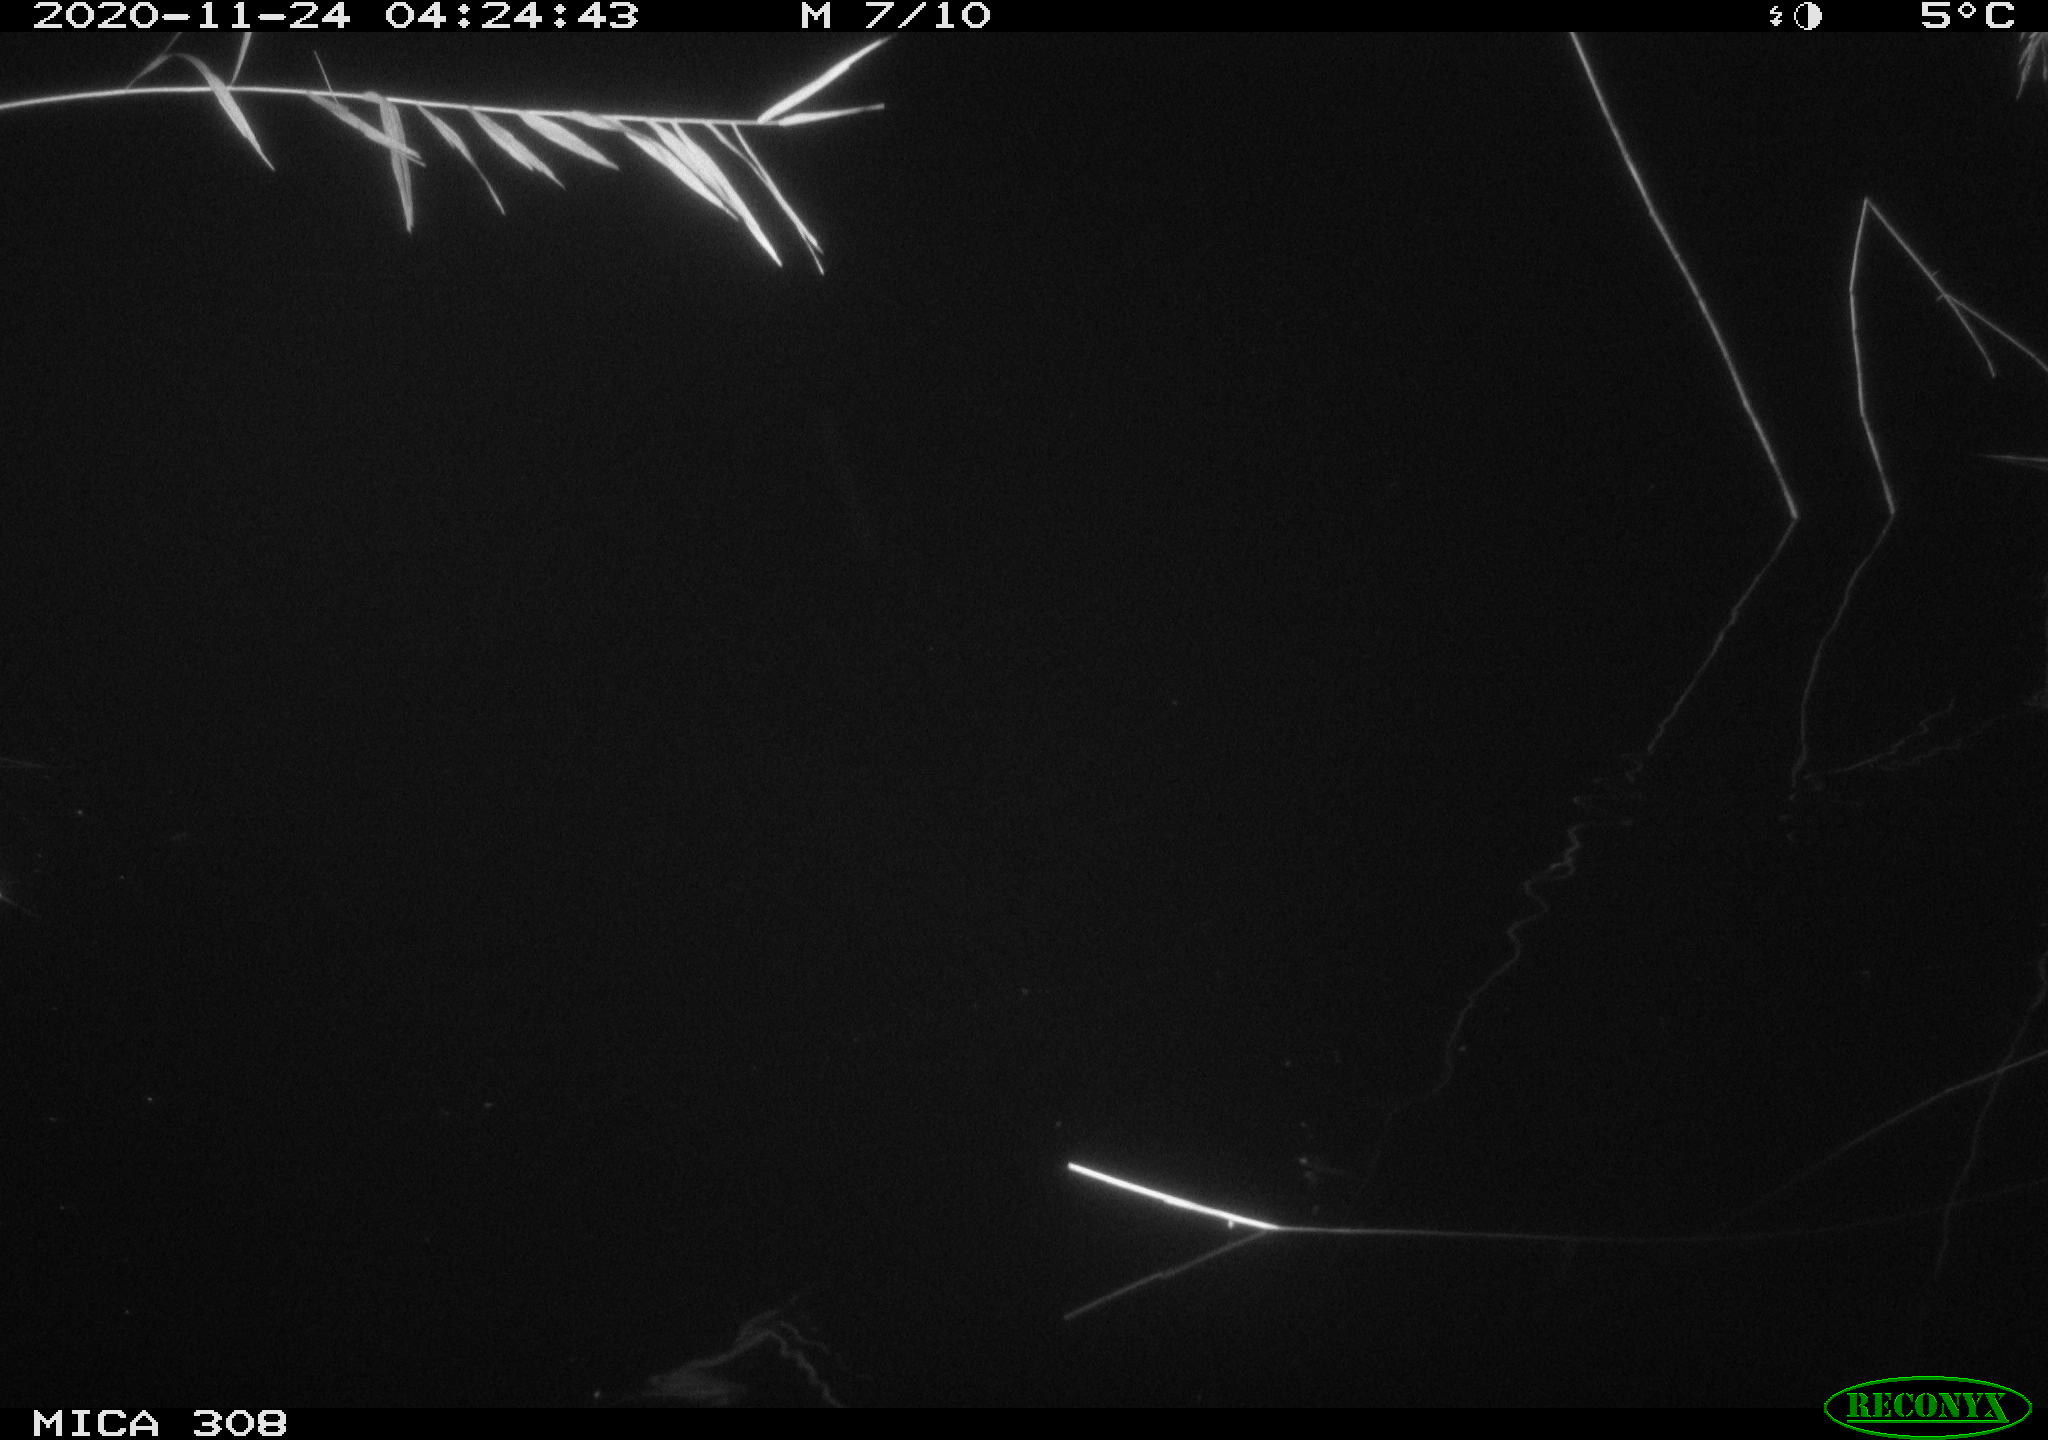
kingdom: Animalia
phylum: Chordata
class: Aves
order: Anseriformes
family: Anatidae
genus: Anas
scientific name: Anas platyrhynchos
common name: Mallard
